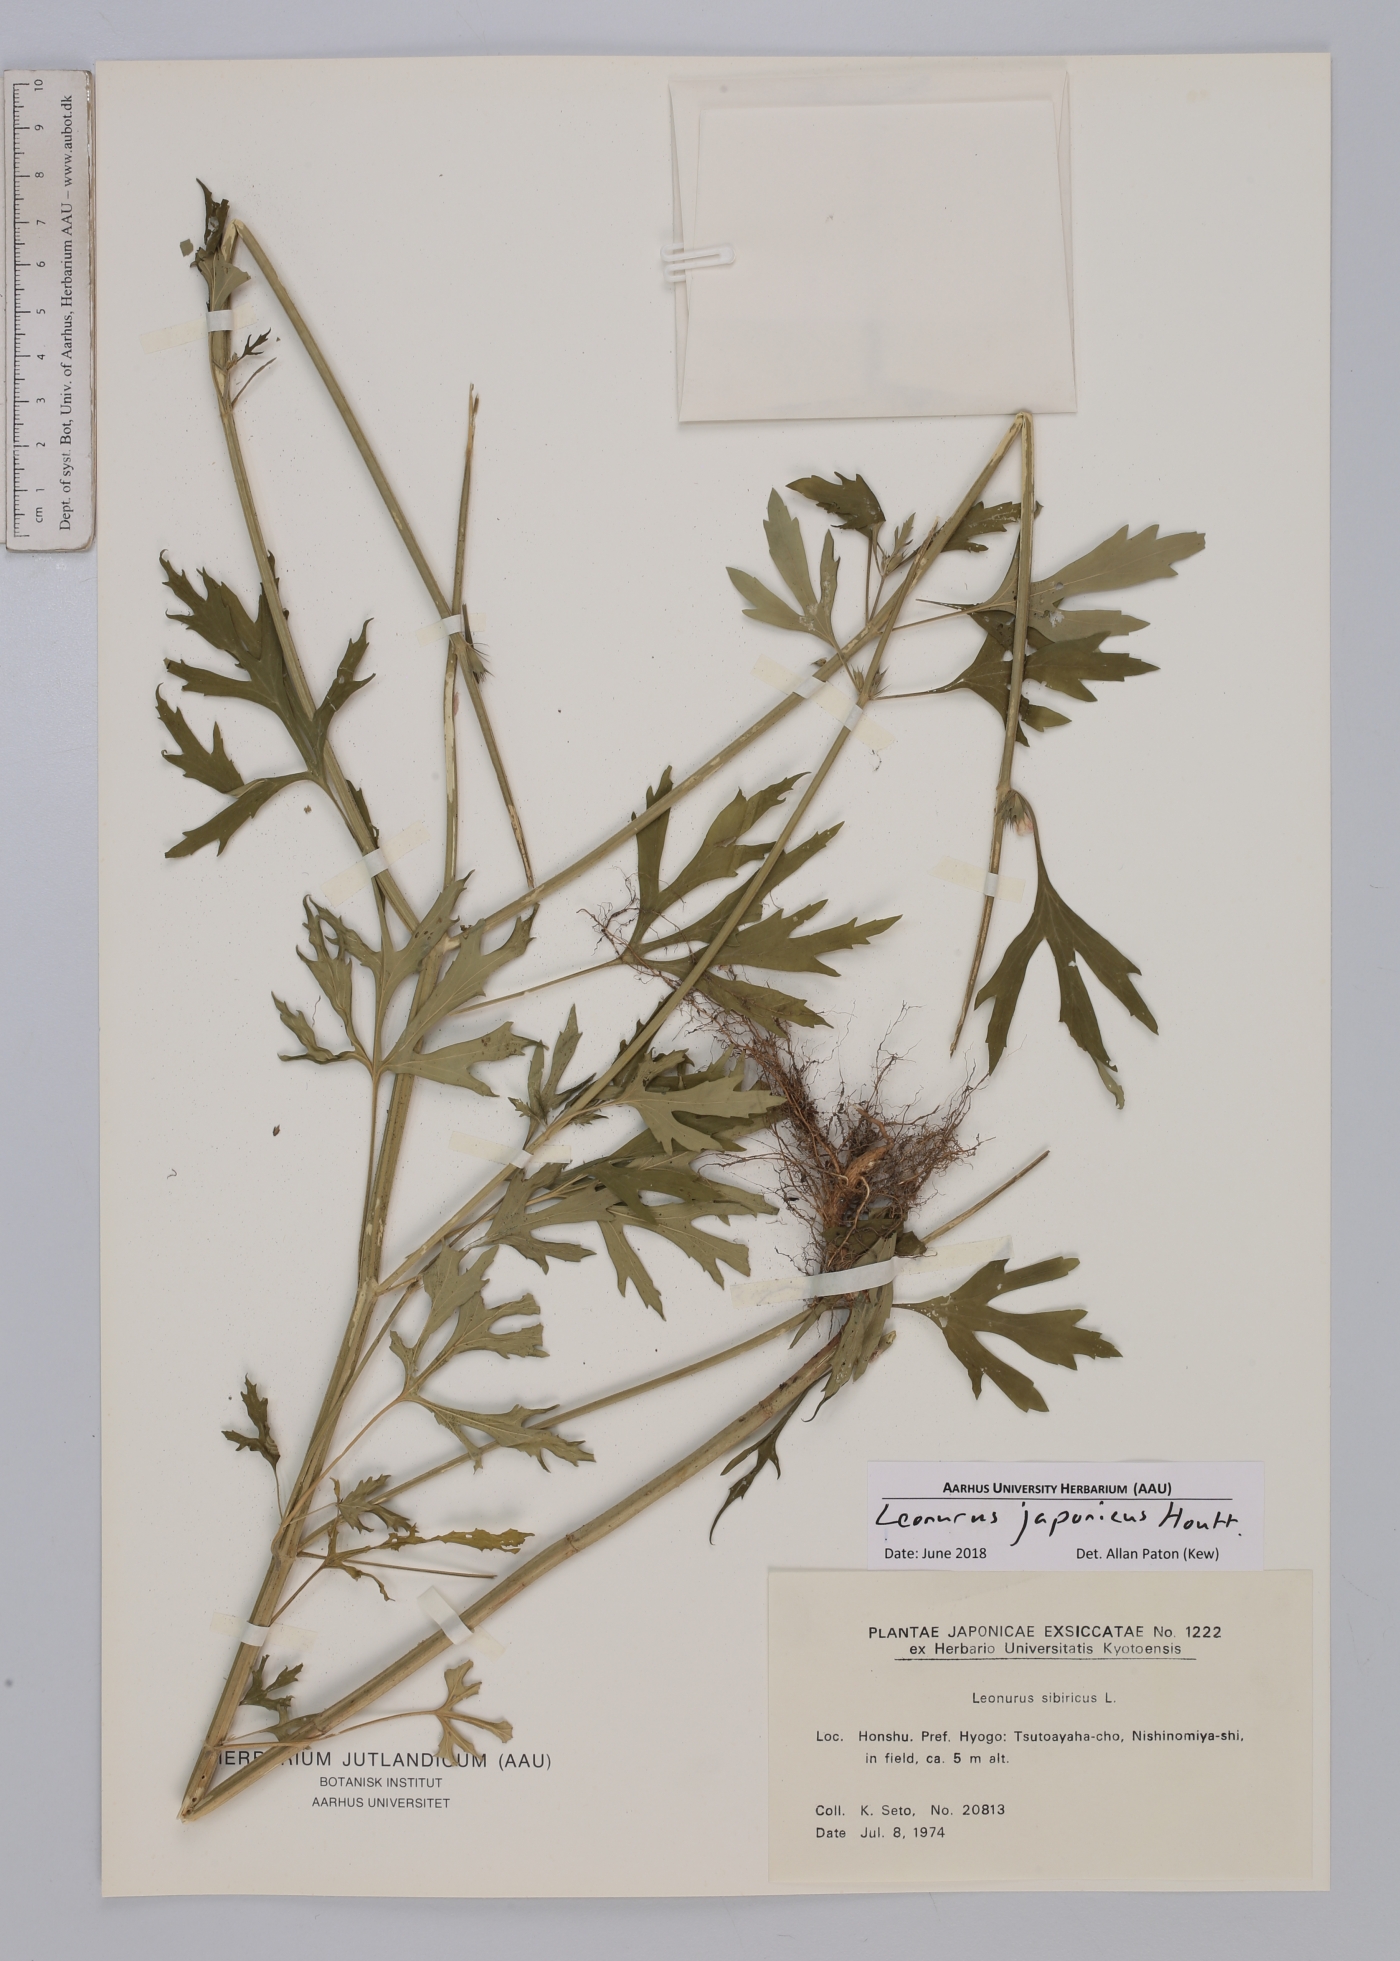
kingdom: Plantae
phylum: Tracheophyta
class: Magnoliopsida
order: Lamiales
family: Lamiaceae
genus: Leonurus
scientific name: Leonurus japonicus
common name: Honeyweed
